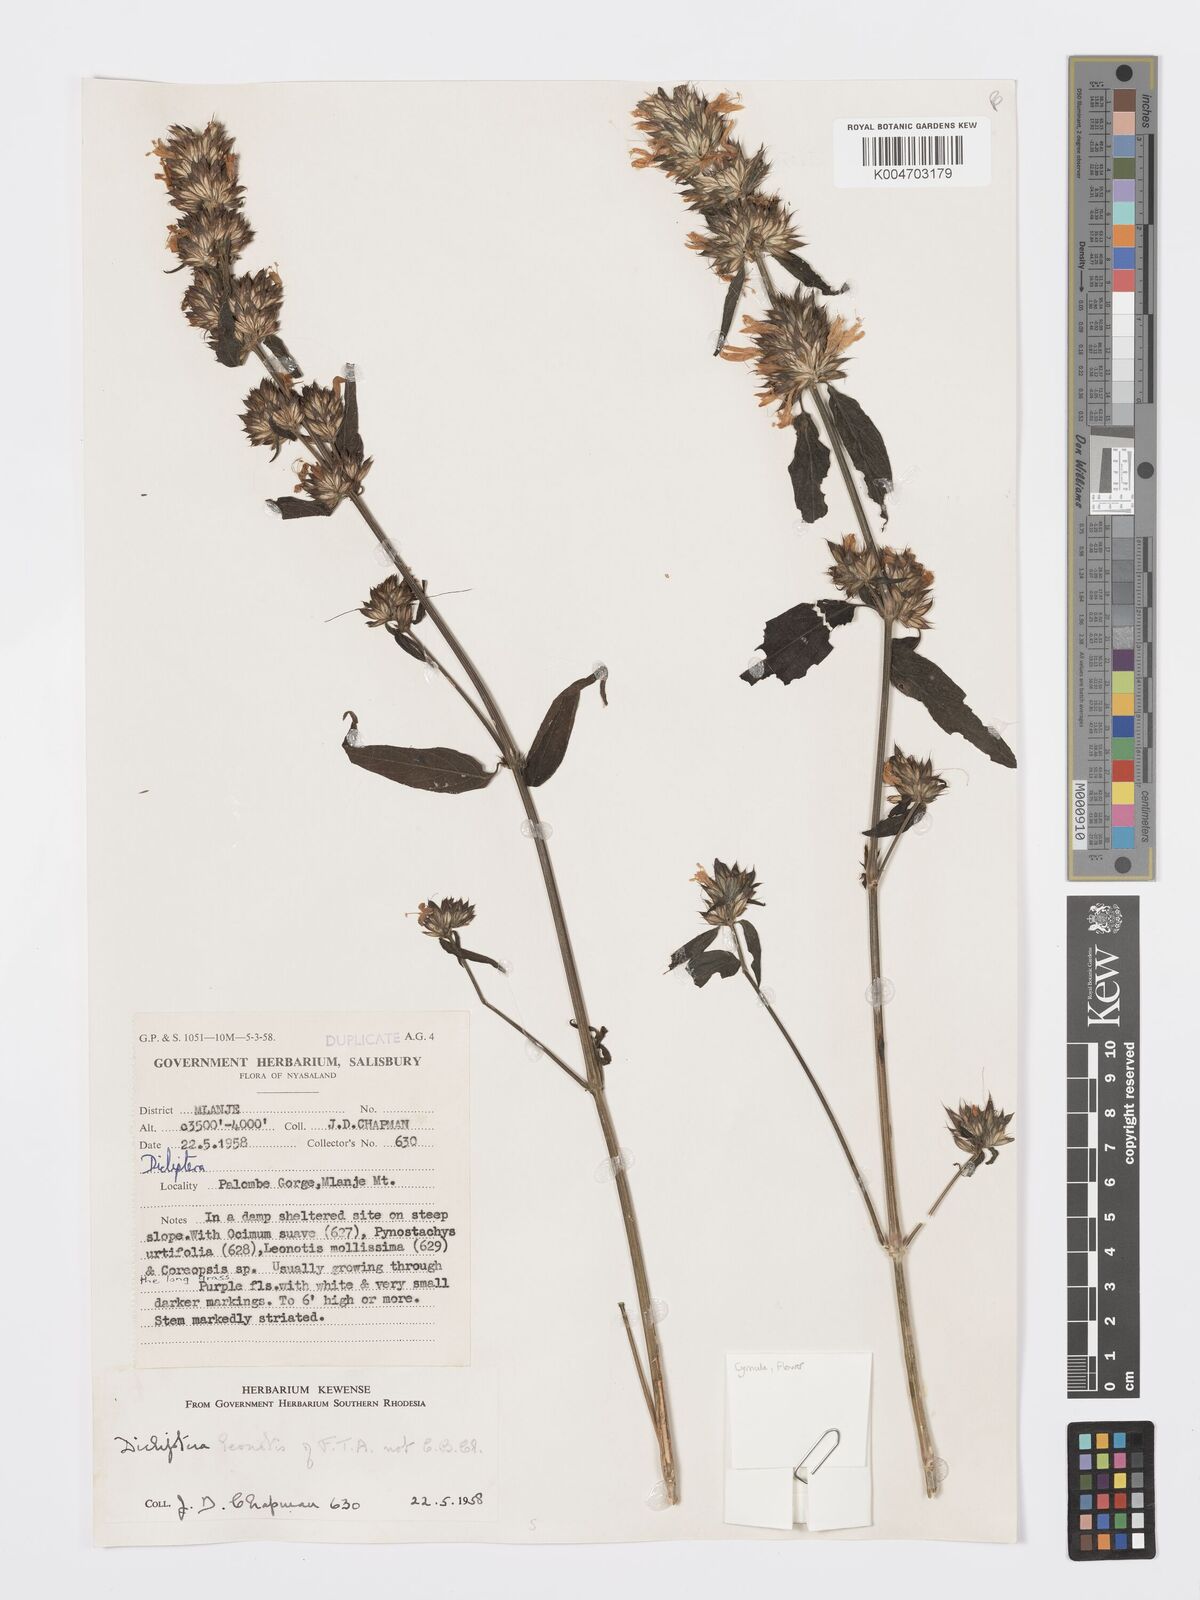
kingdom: Plantae
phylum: Tracheophyta
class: Magnoliopsida
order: Lamiales
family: Acanthaceae
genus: Dicliptera
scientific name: Dicliptera clinopodia
